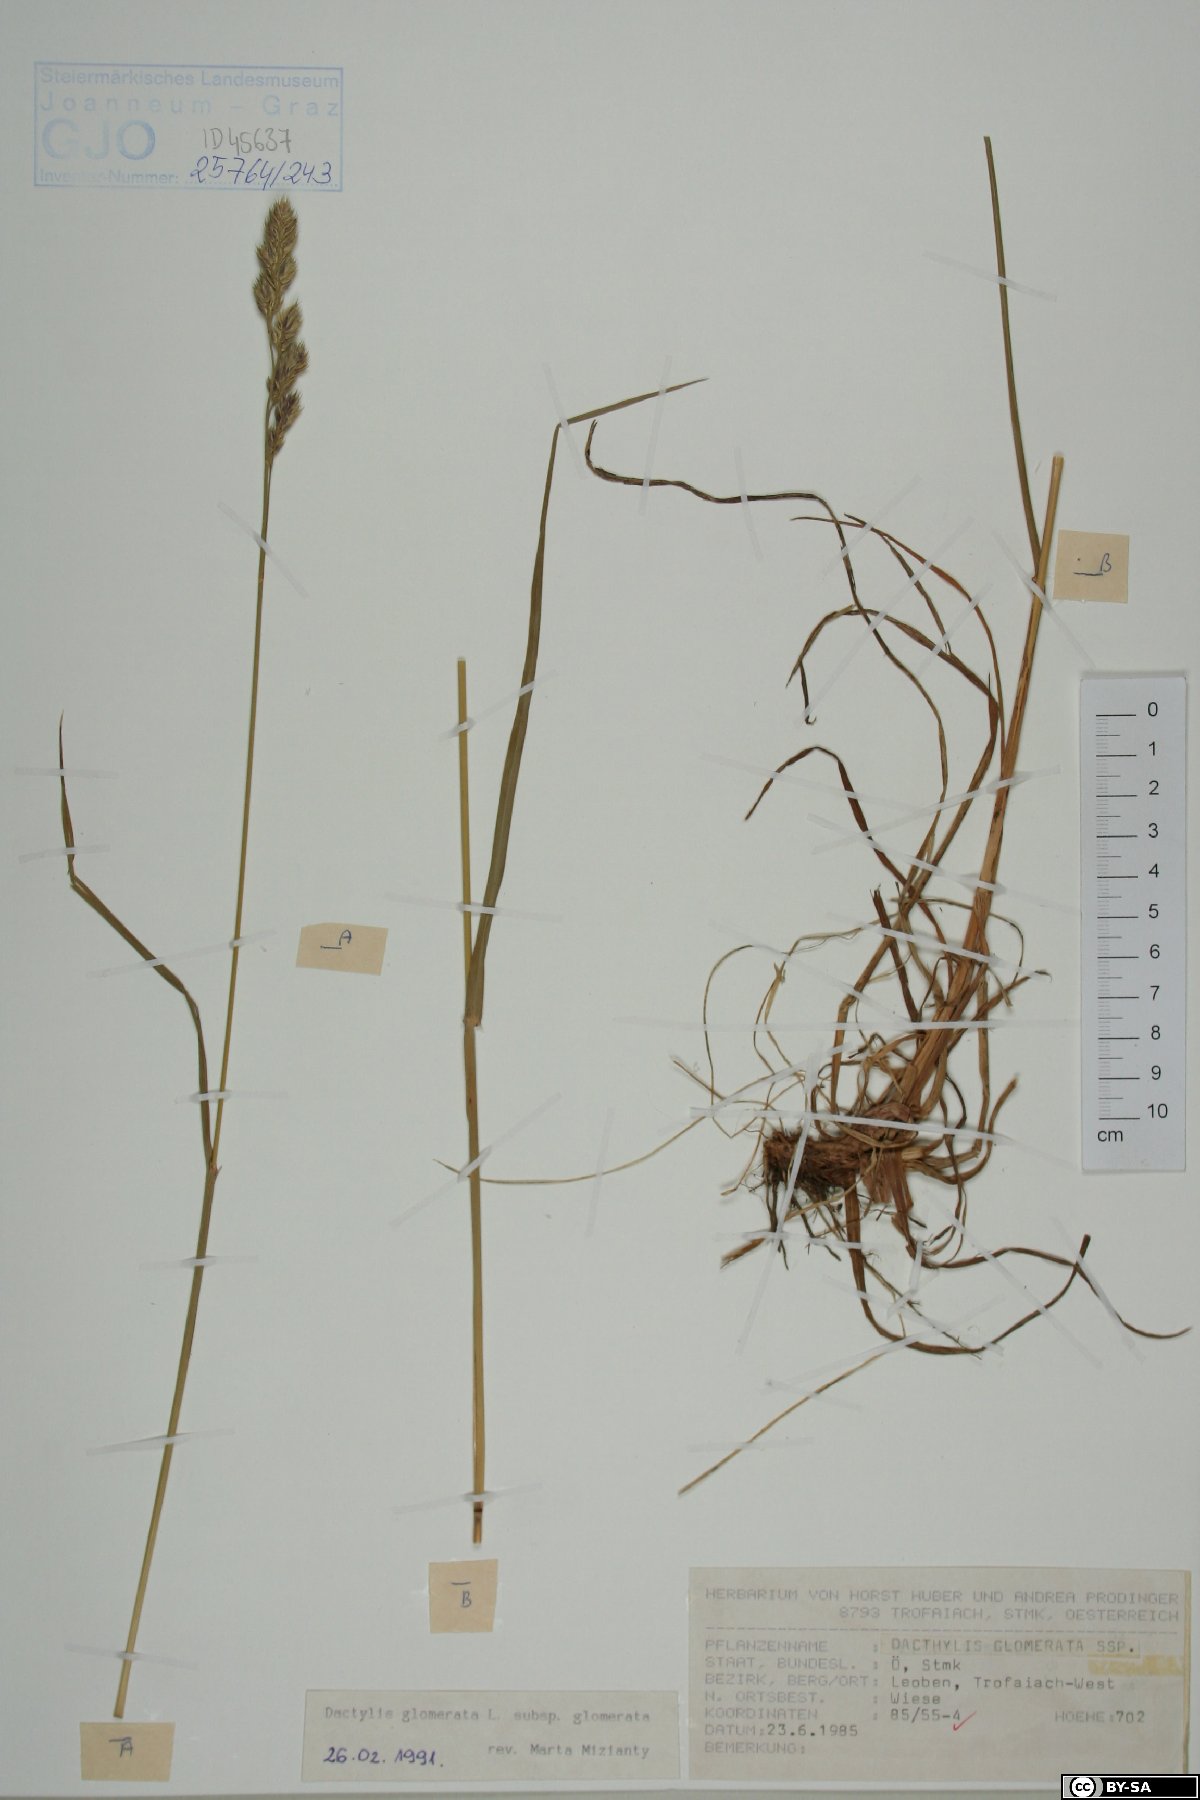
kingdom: Plantae
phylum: Tracheophyta
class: Liliopsida
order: Poales
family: Poaceae
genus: Dactylis
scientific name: Dactylis glomerata
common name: Orchardgrass
